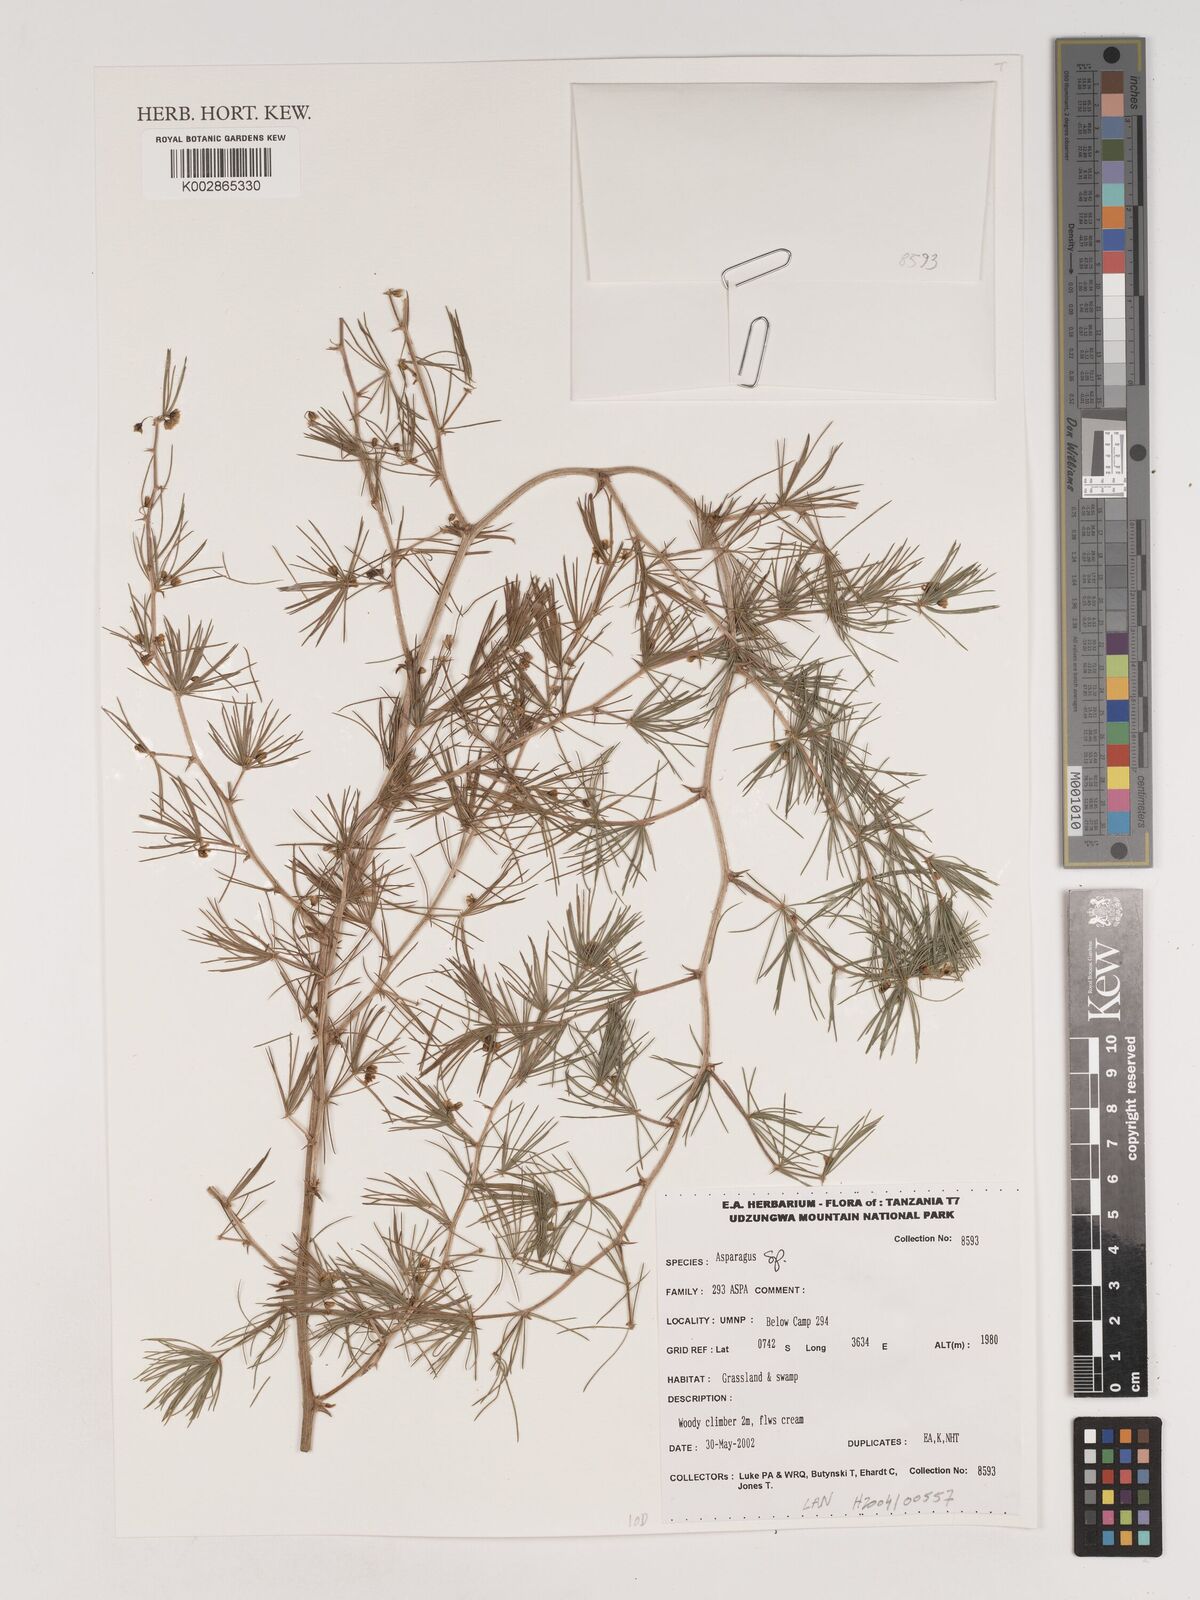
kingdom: Plantae
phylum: Tracheophyta
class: Liliopsida
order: Asparagales
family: Asparagaceae
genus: Asparagus
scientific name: Asparagus
